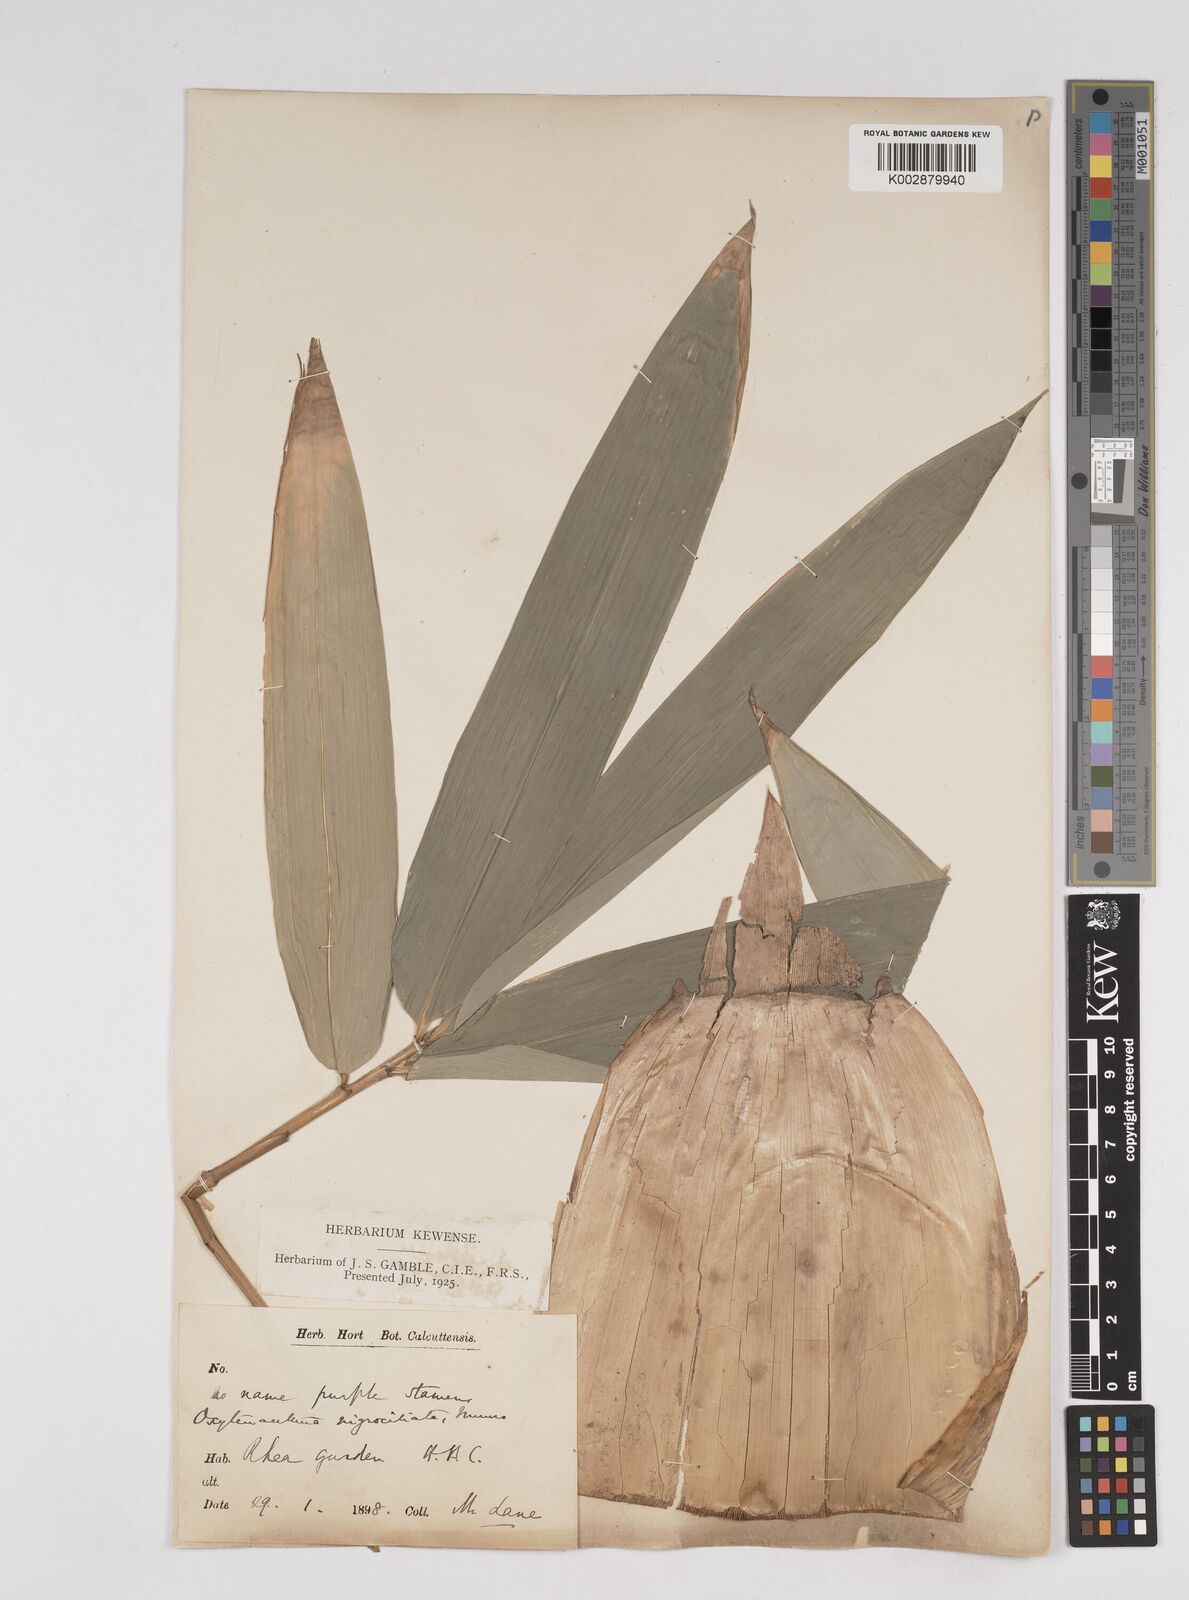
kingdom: Plantae
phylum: Tracheophyta
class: Liliopsida
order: Poales
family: Poaceae
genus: Gigantochloa
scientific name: Gigantochloa nigrociliata
